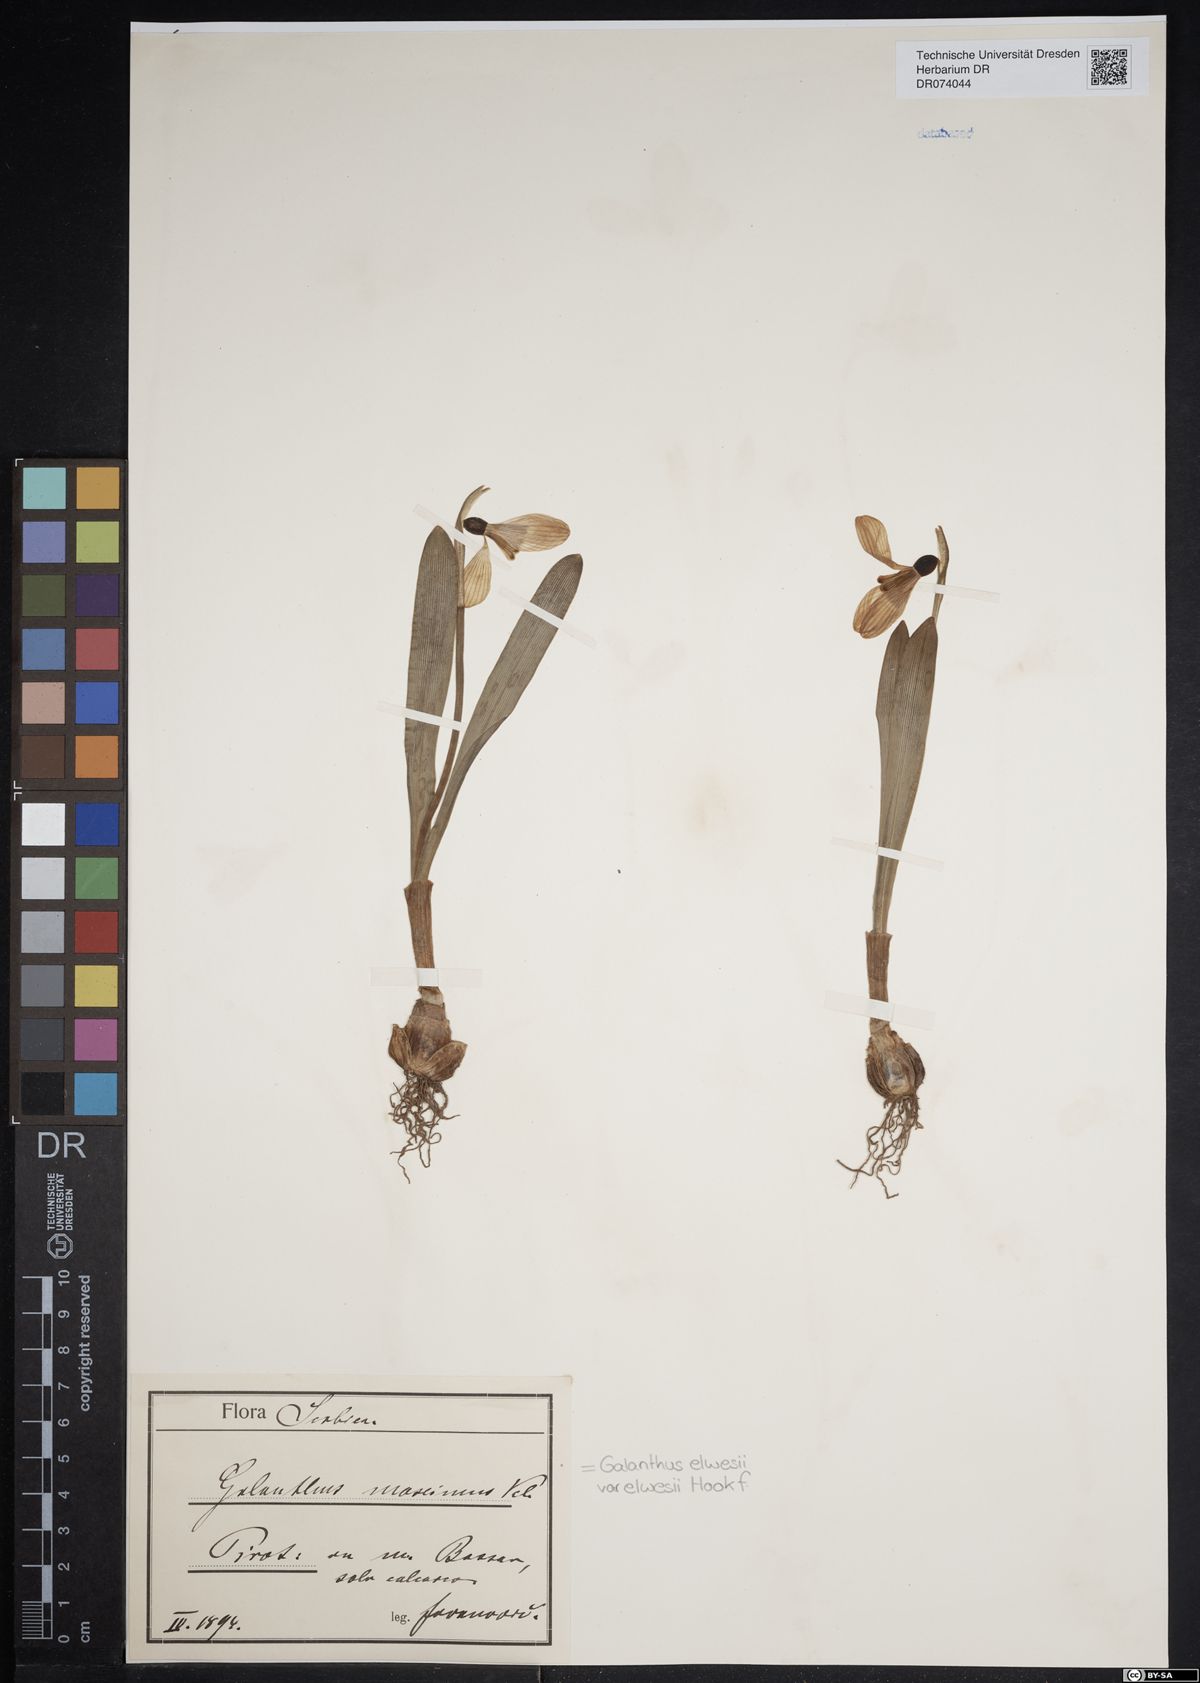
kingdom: Plantae
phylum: Tracheophyta
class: Liliopsida
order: Asparagales
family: Amaryllidaceae
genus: Galanthus
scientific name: Galanthus elwesii
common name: Greater snowdrop
